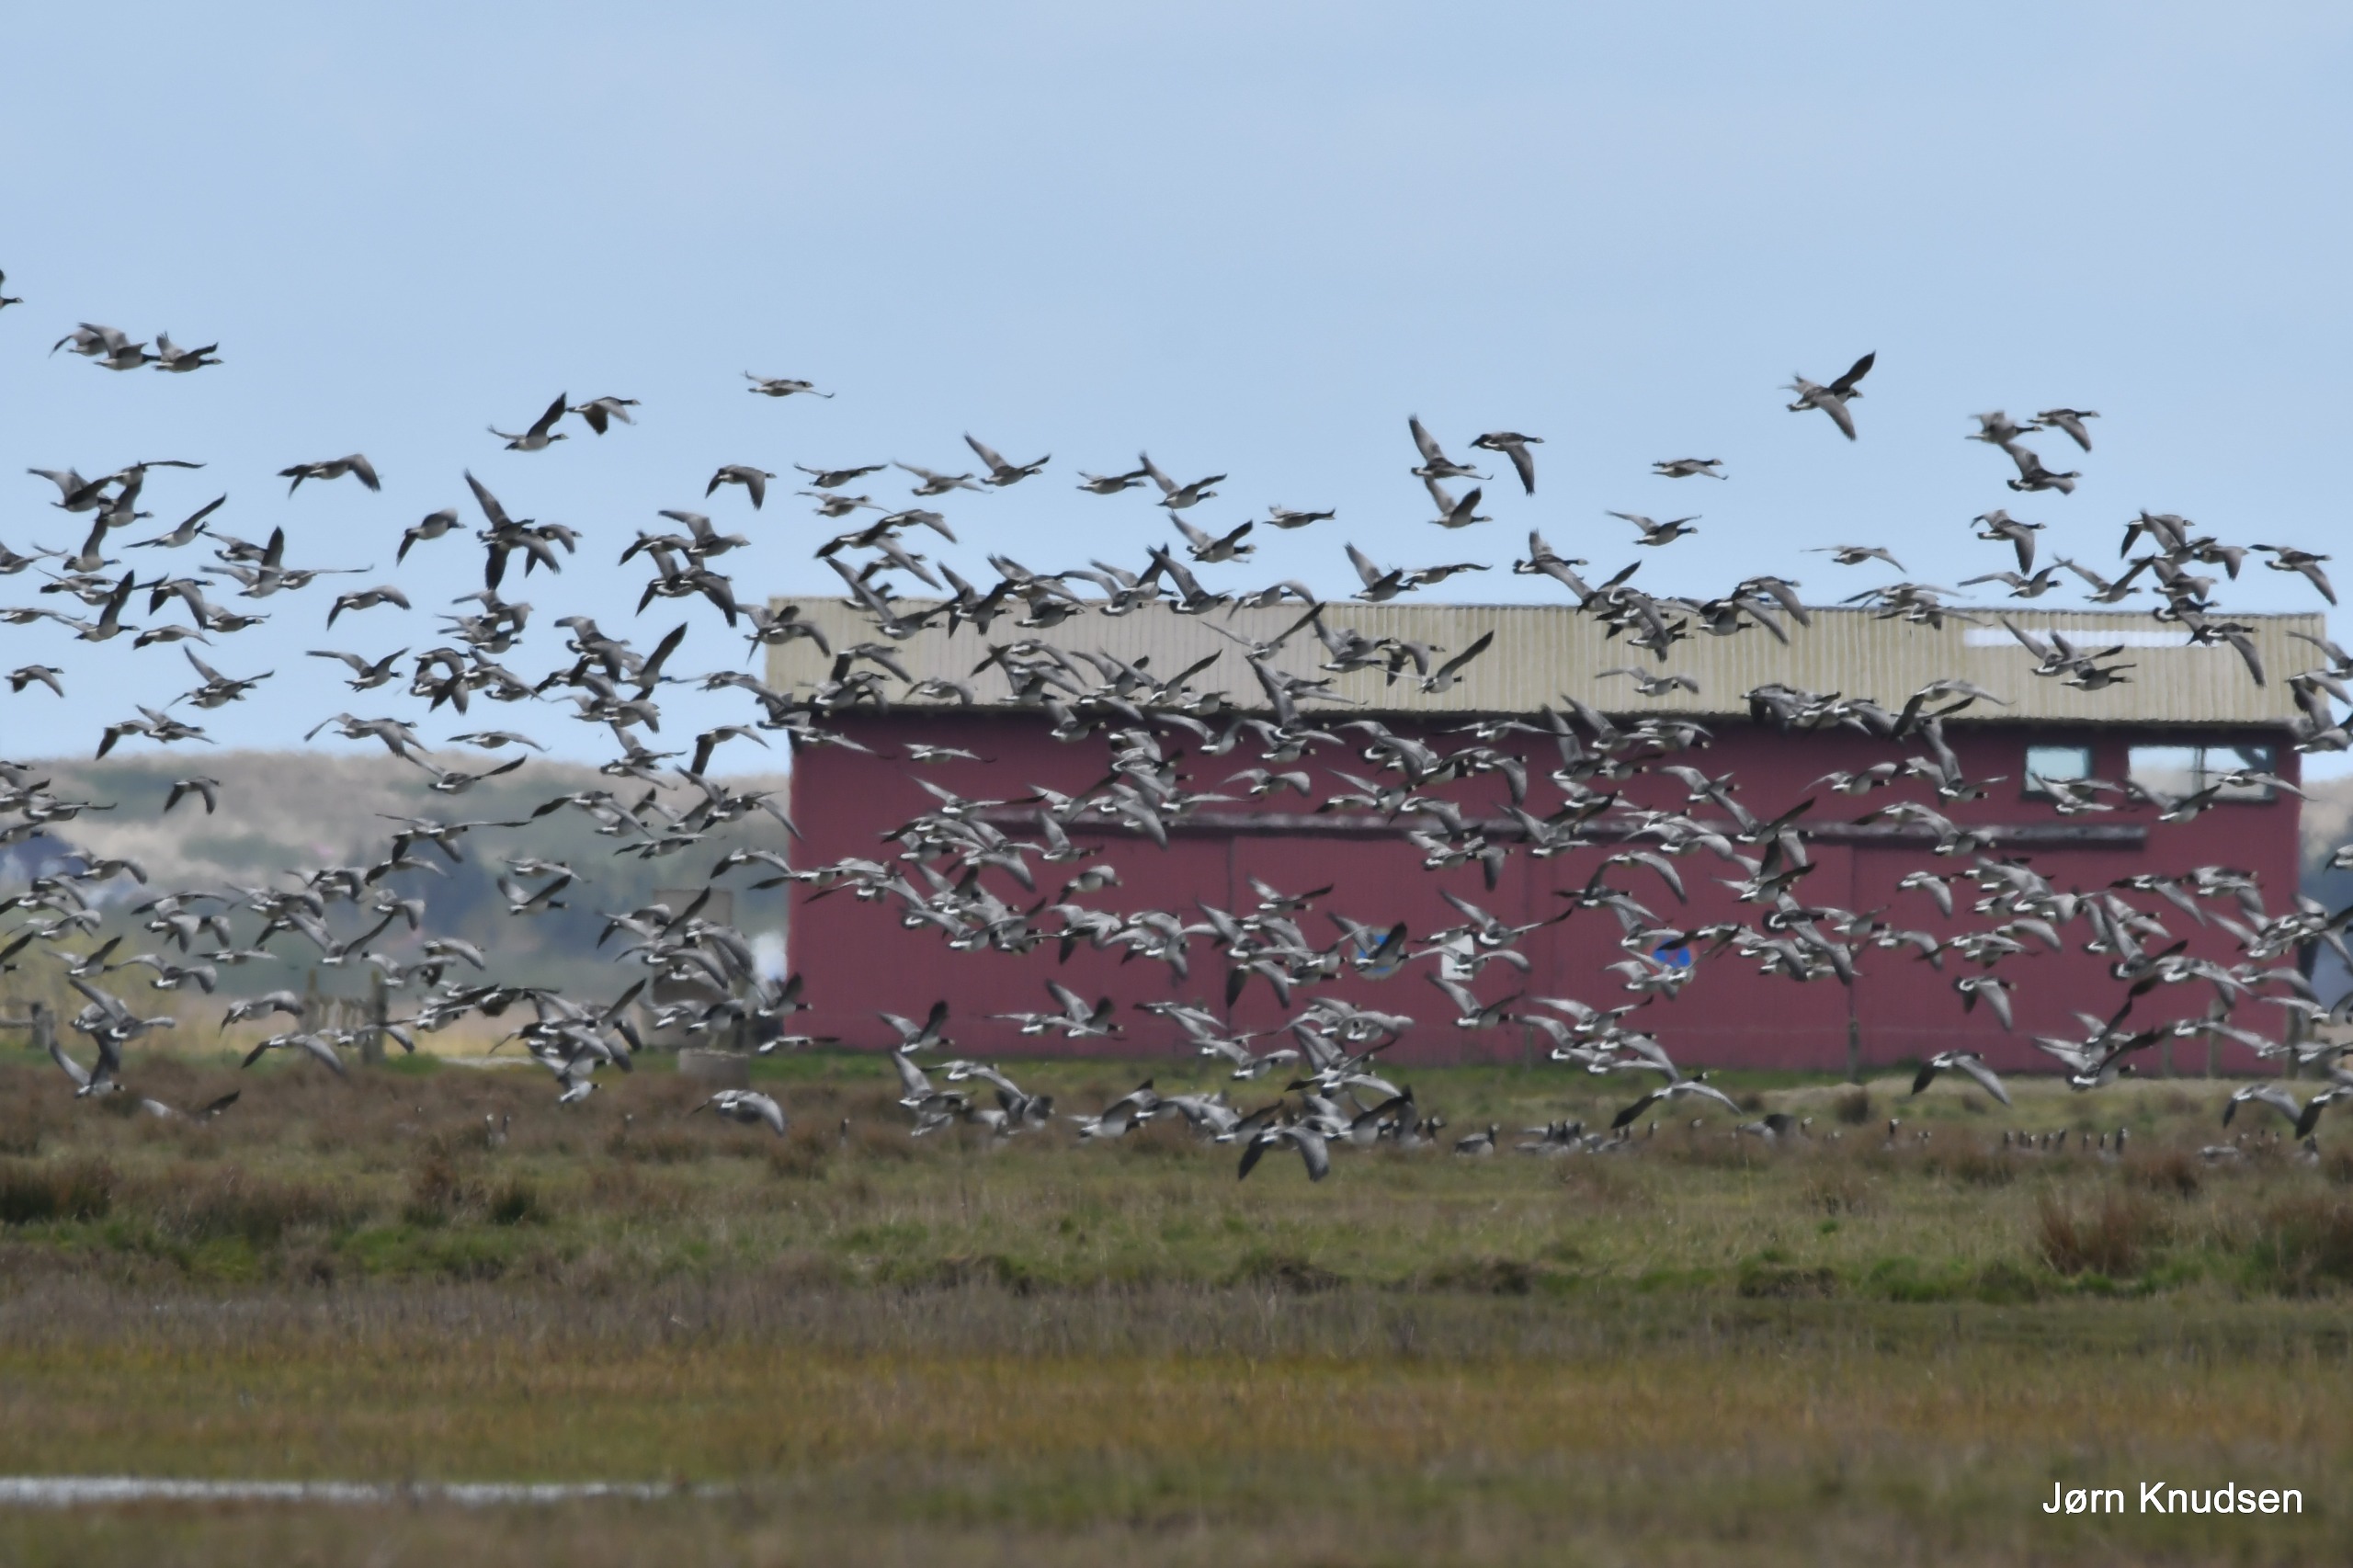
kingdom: Animalia
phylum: Chordata
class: Aves
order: Anseriformes
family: Anatidae
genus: Branta
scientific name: Branta leucopsis
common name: Bramgås
